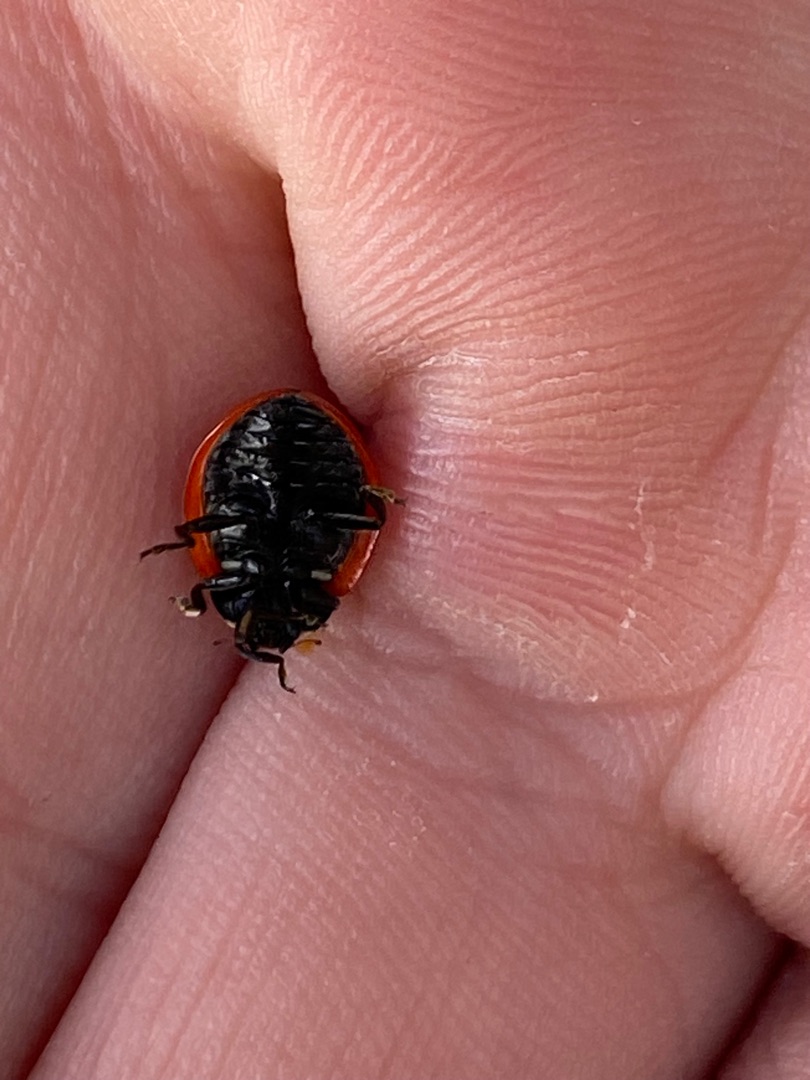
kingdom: Animalia
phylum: Arthropoda
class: Insecta
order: Coleoptera
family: Coccinellidae
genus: Coccinella
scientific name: Coccinella septempunctata
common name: Syvplettet mariehøne
